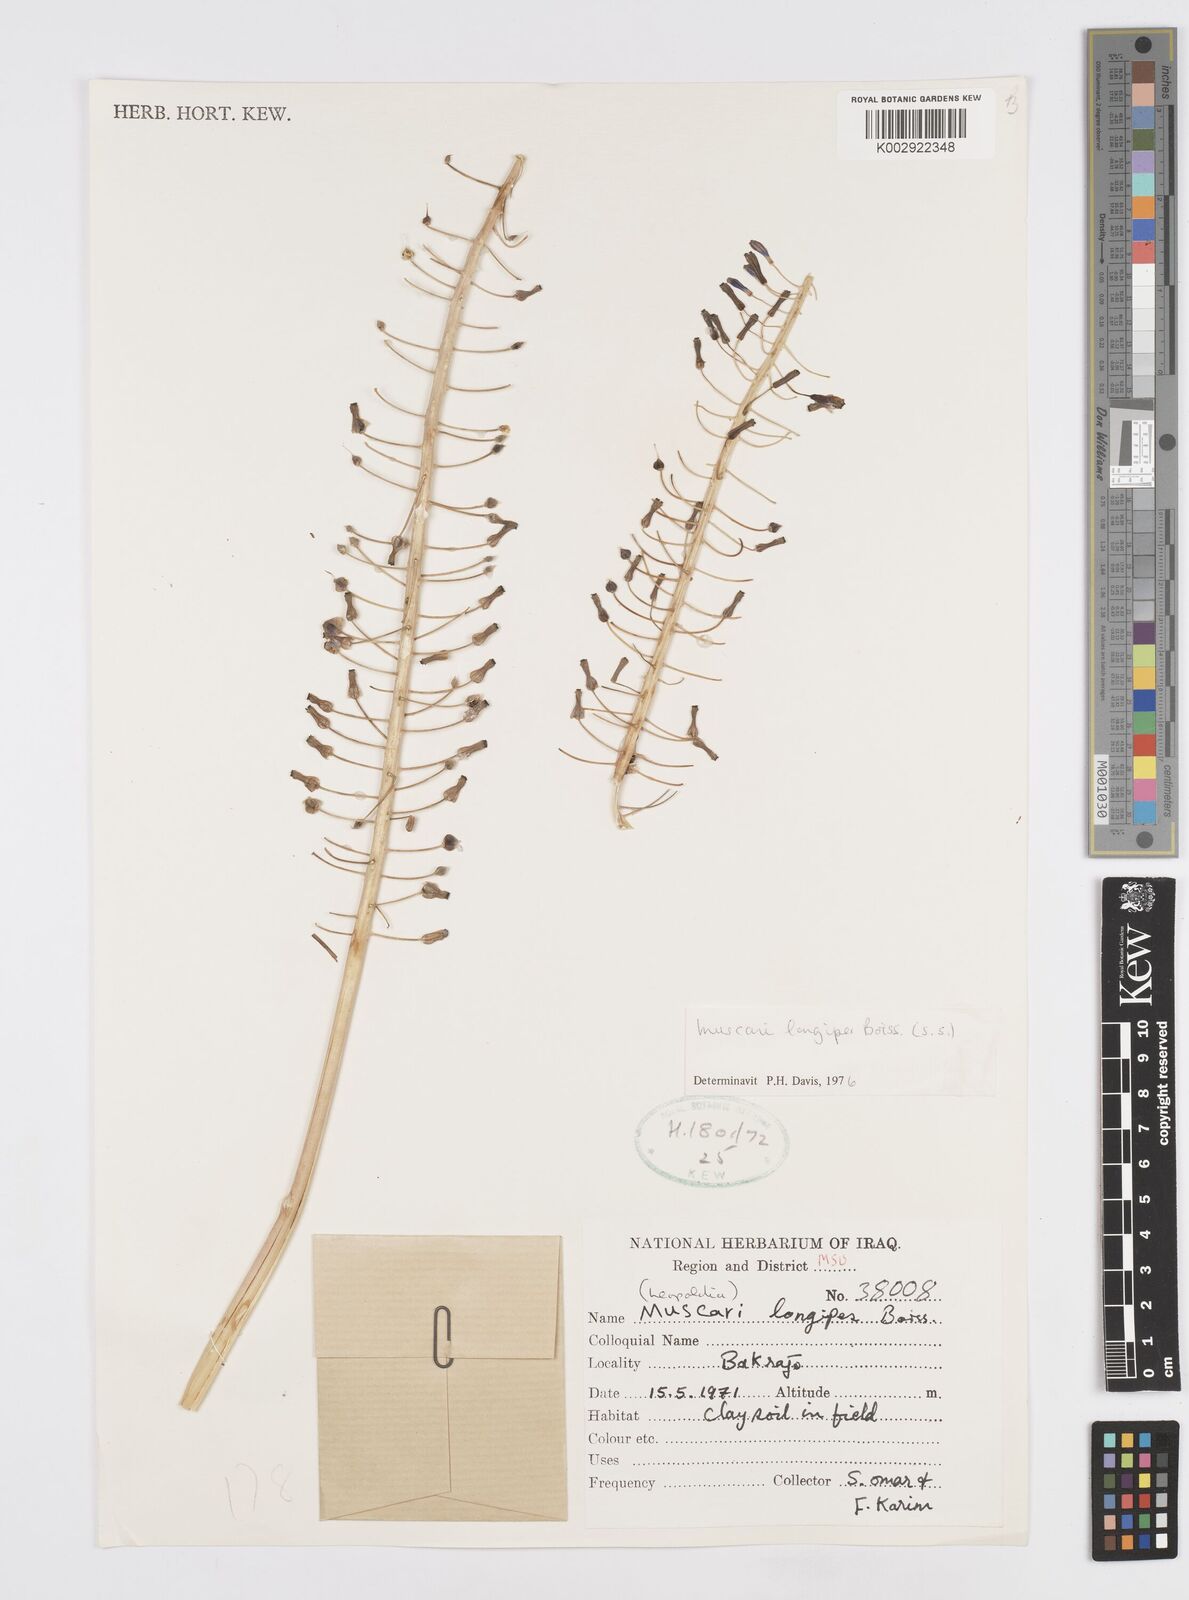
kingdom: Plantae
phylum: Tracheophyta
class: Liliopsida
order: Asparagales
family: Asparagaceae
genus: Muscari
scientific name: Muscari longipes
